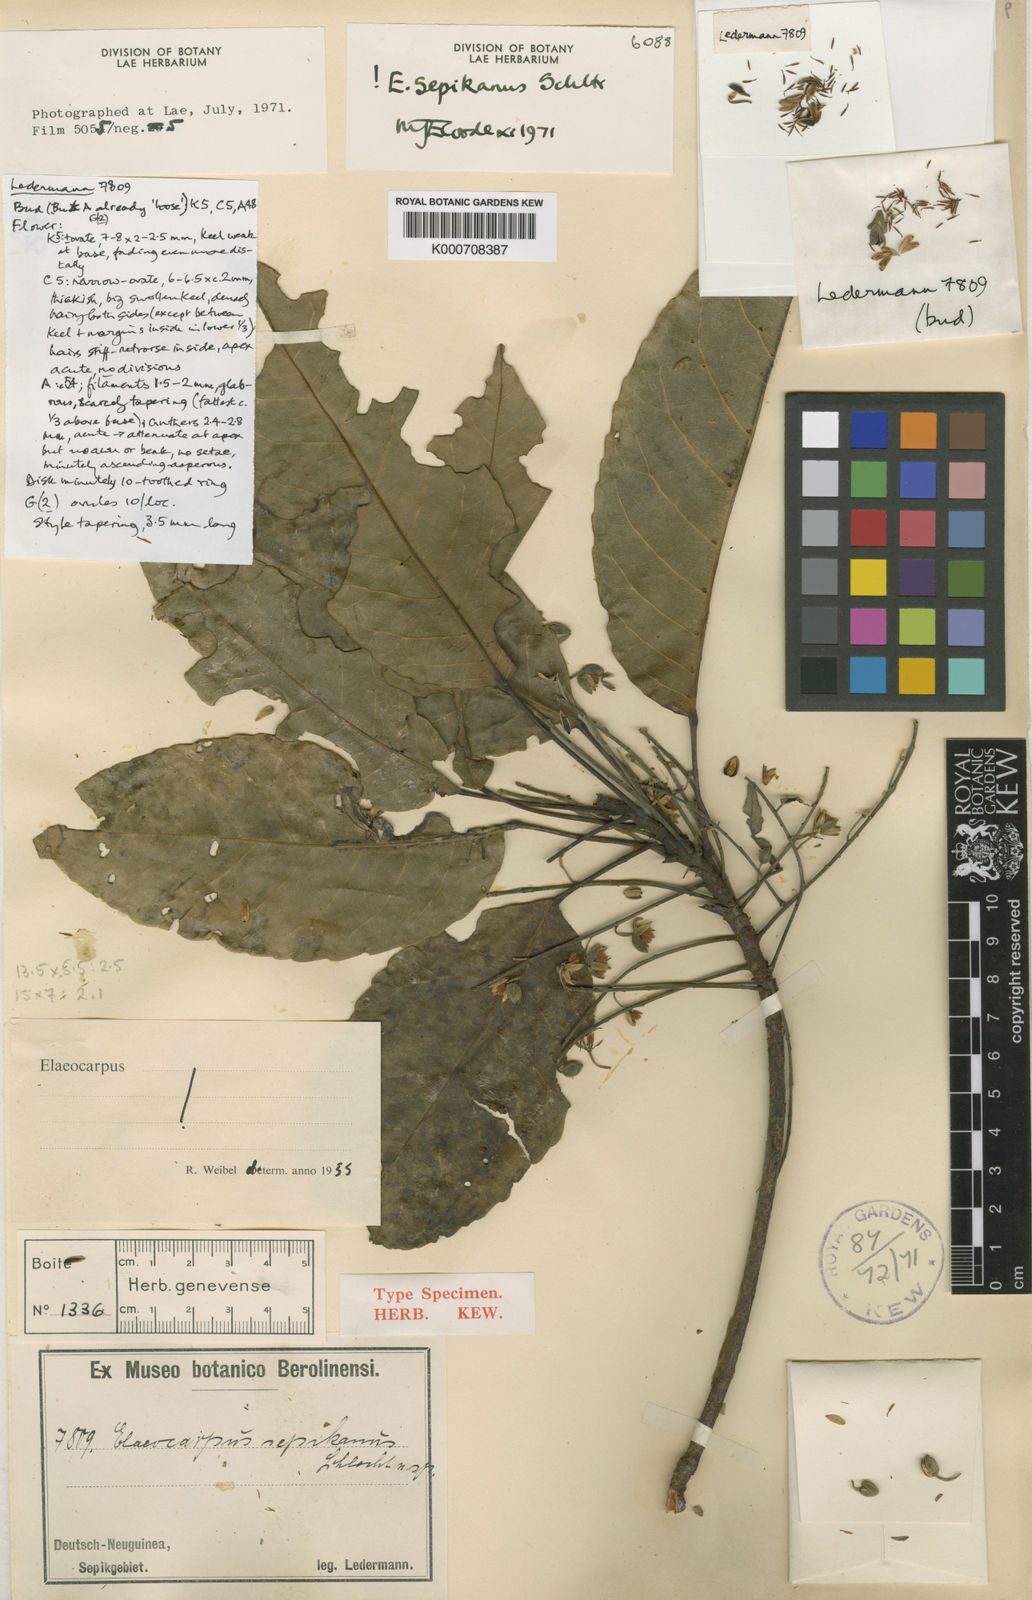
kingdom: Plantae
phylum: Tracheophyta
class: Magnoliopsida
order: Oxalidales
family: Elaeocarpaceae
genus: Elaeocarpus
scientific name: Elaeocarpus sepikanus
